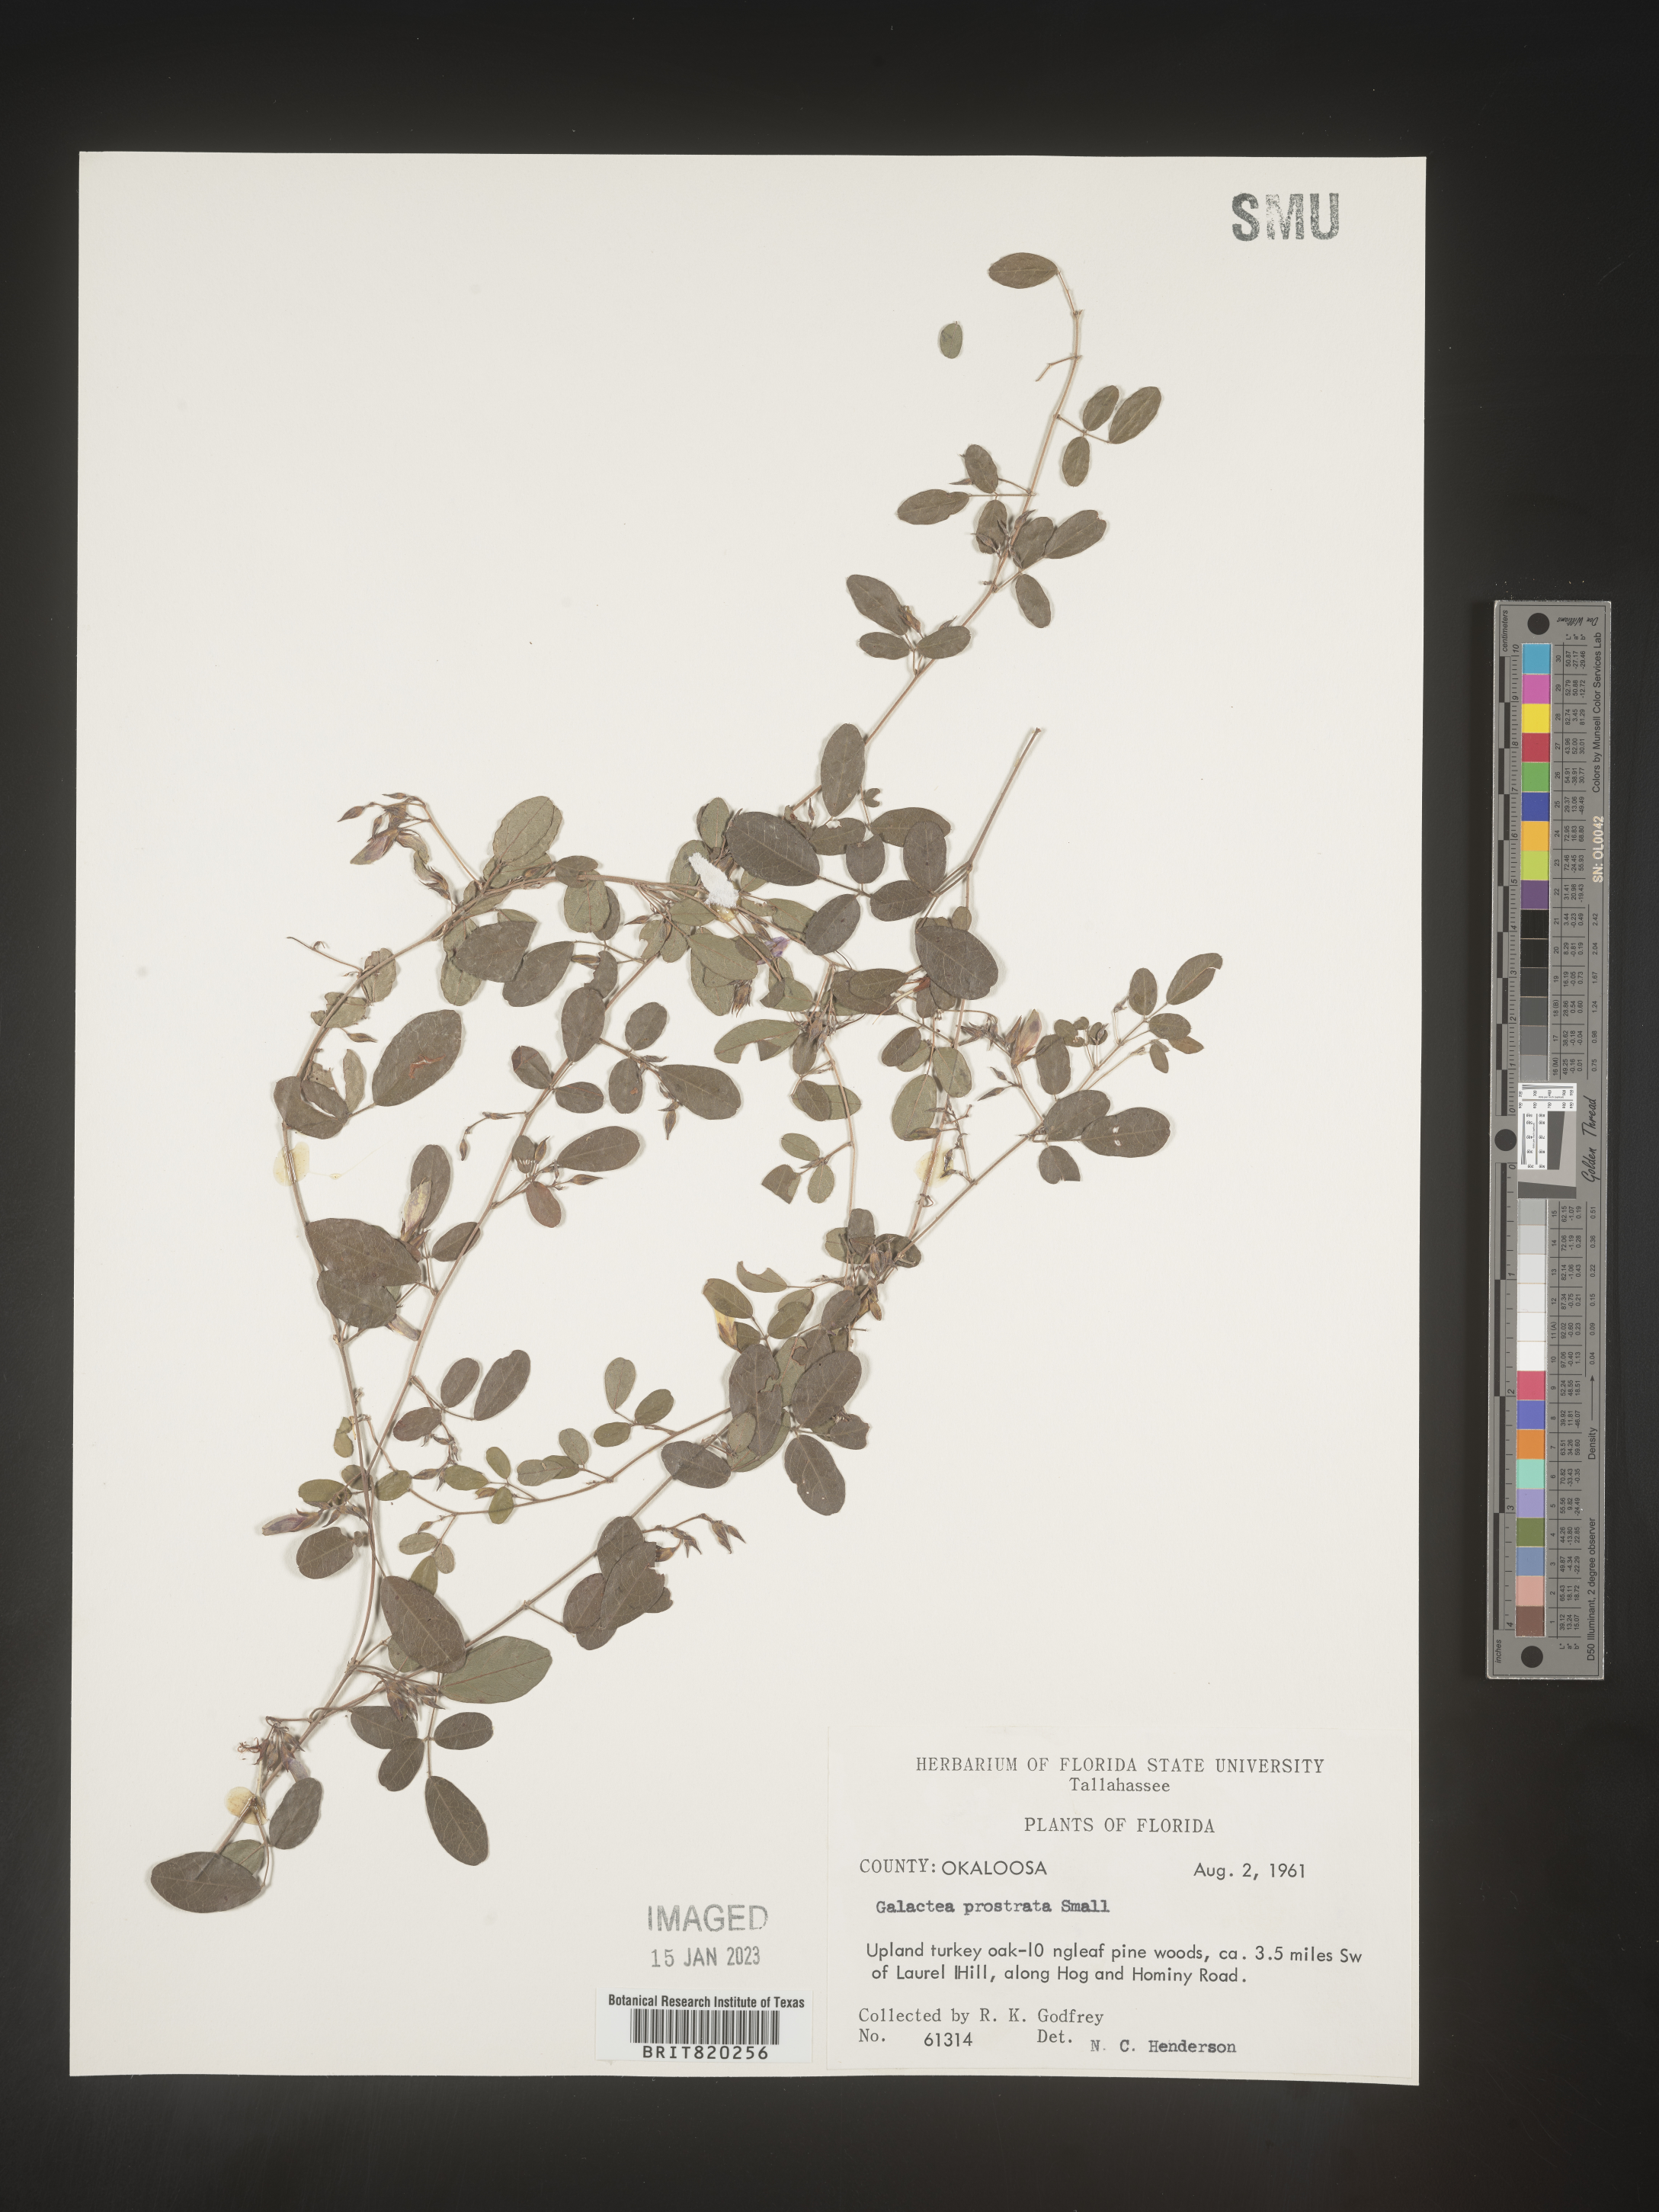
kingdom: Plantae
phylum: Tracheophyta
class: Magnoliopsida
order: Fabales
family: Fabaceae
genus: Galactia
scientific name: Galactia microphylla
